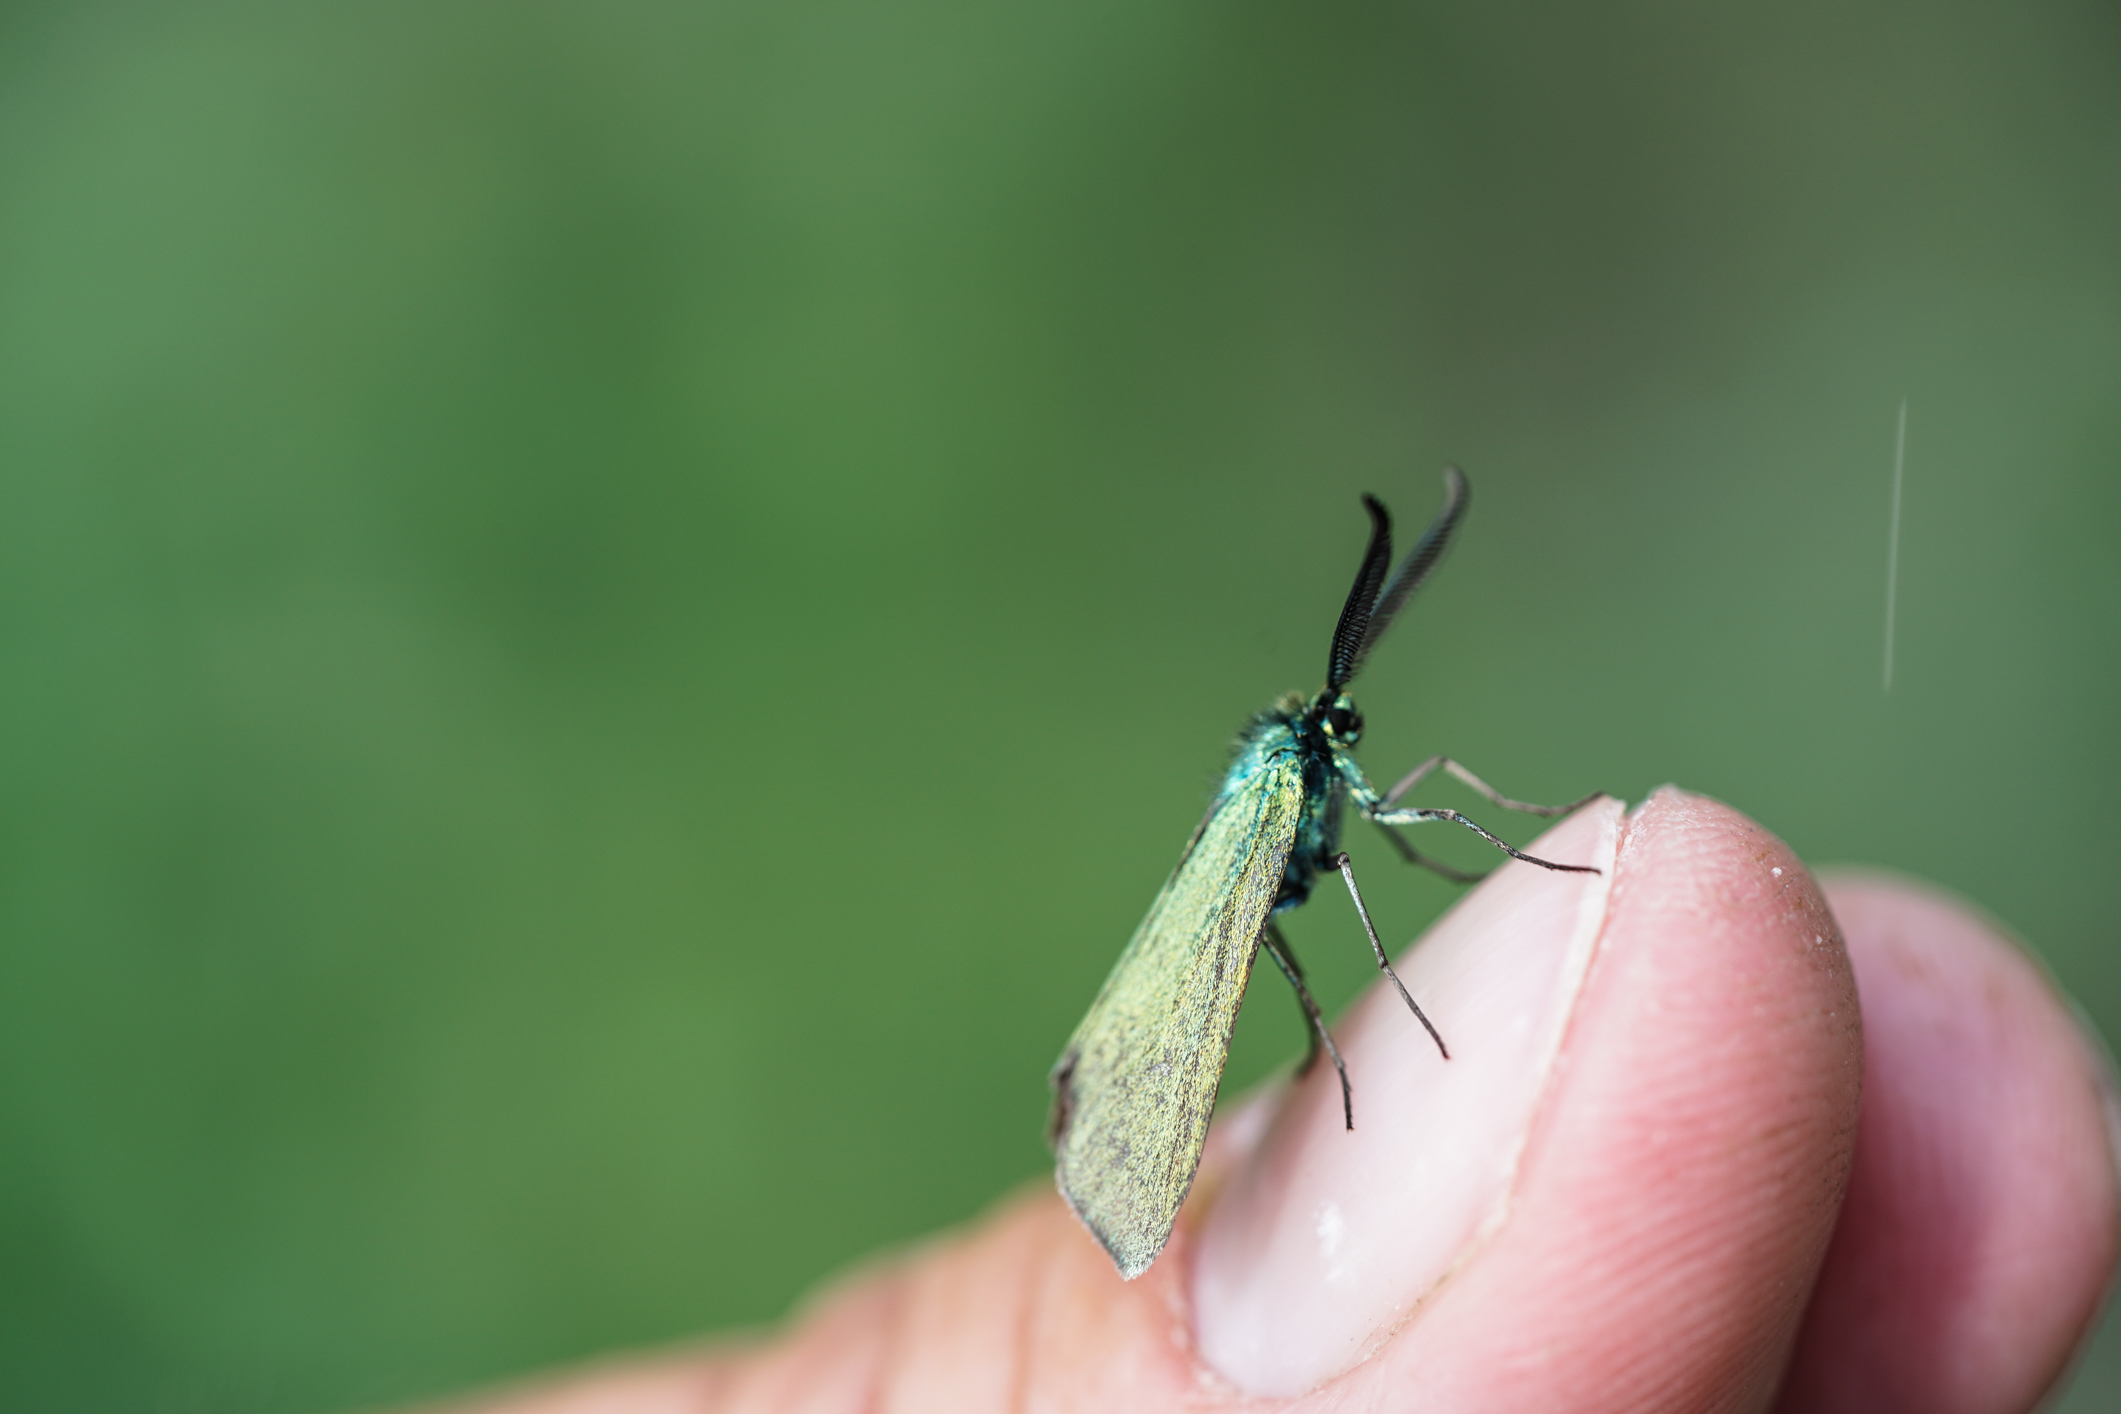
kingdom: Animalia
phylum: Arthropoda
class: Insecta
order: Lepidoptera
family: Zygaenidae
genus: Adscita
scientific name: Adscita statices
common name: Forester
